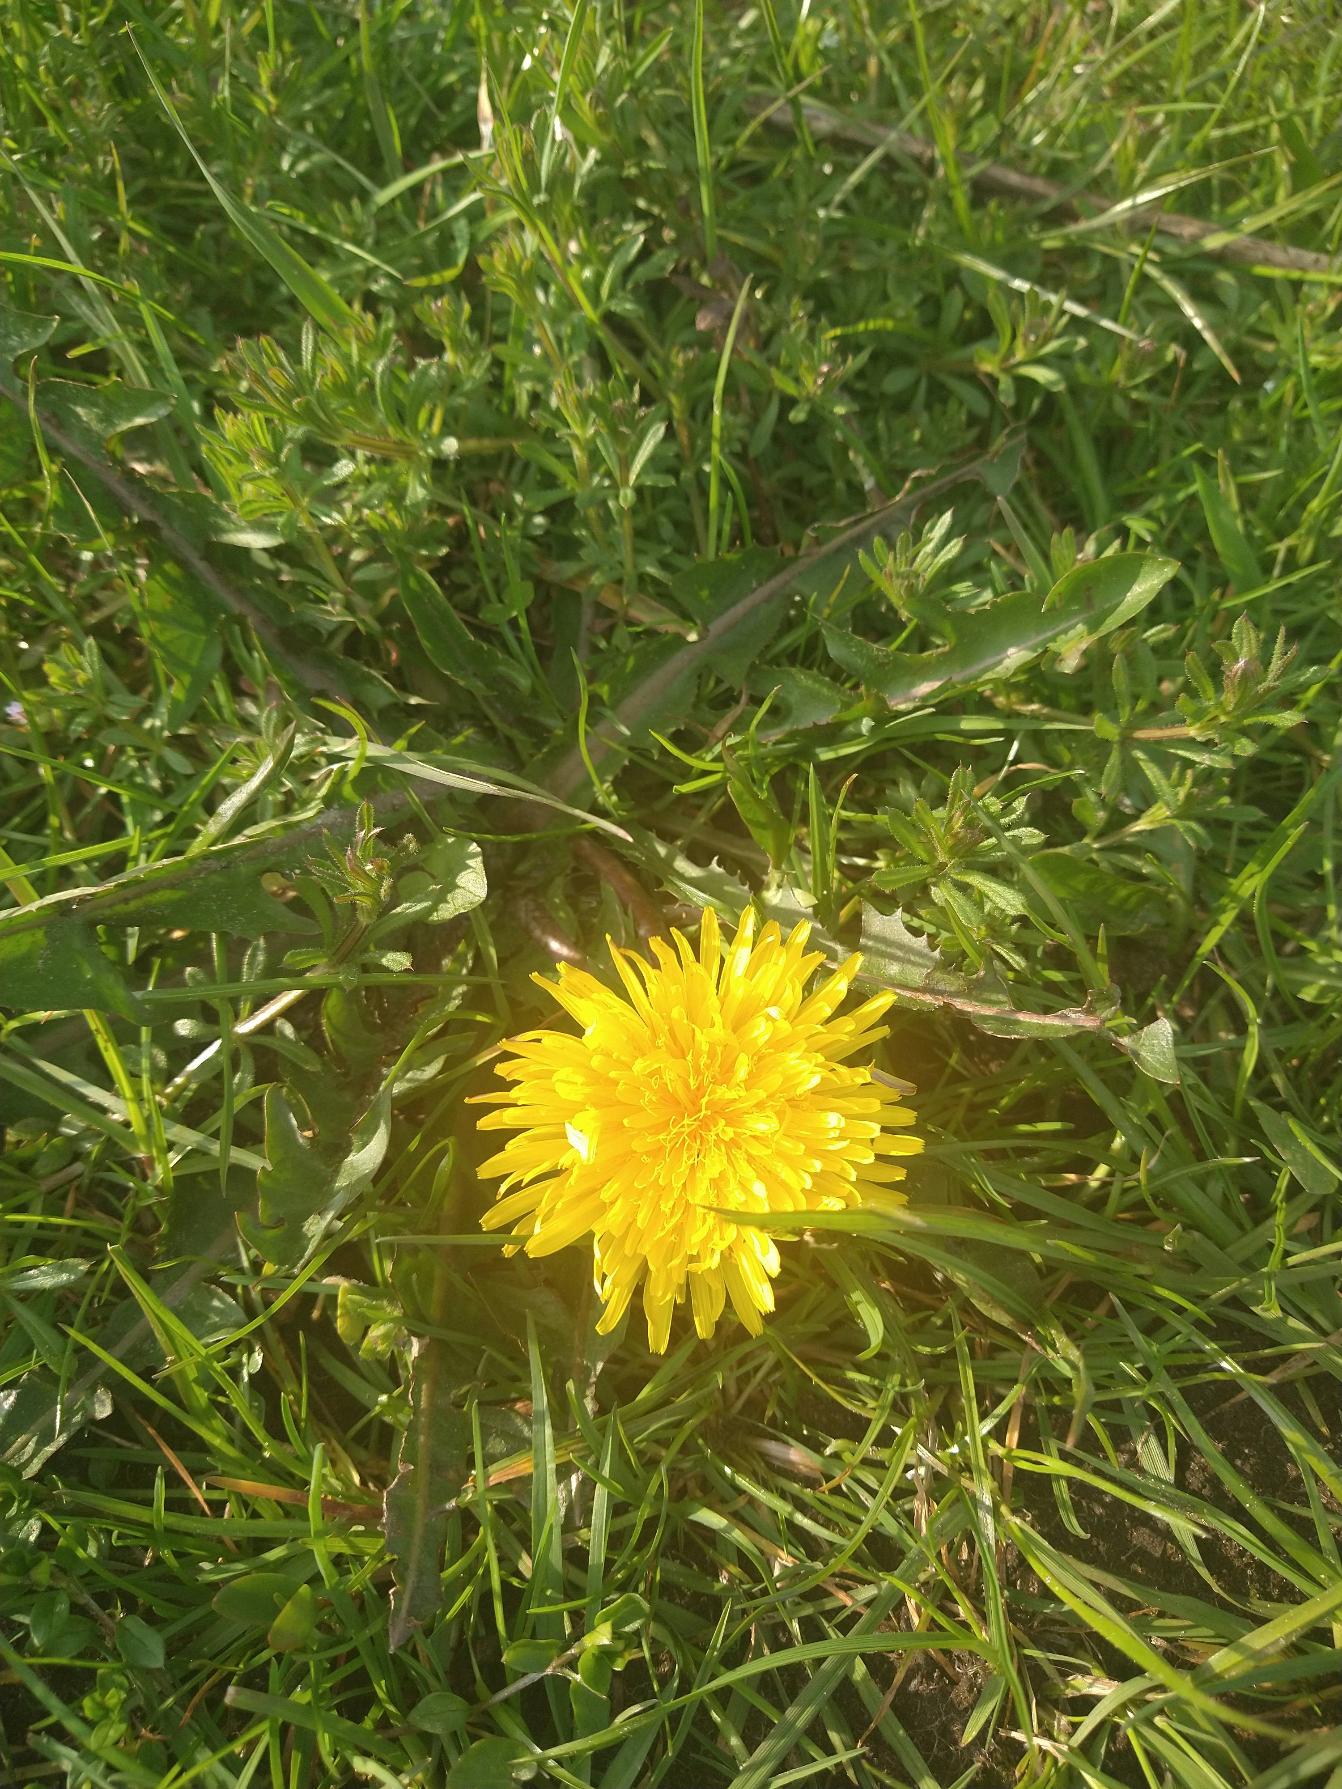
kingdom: Plantae
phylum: Tracheophyta
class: Magnoliopsida
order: Asterales
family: Asteraceae
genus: Taraxacum
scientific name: Taraxacum
